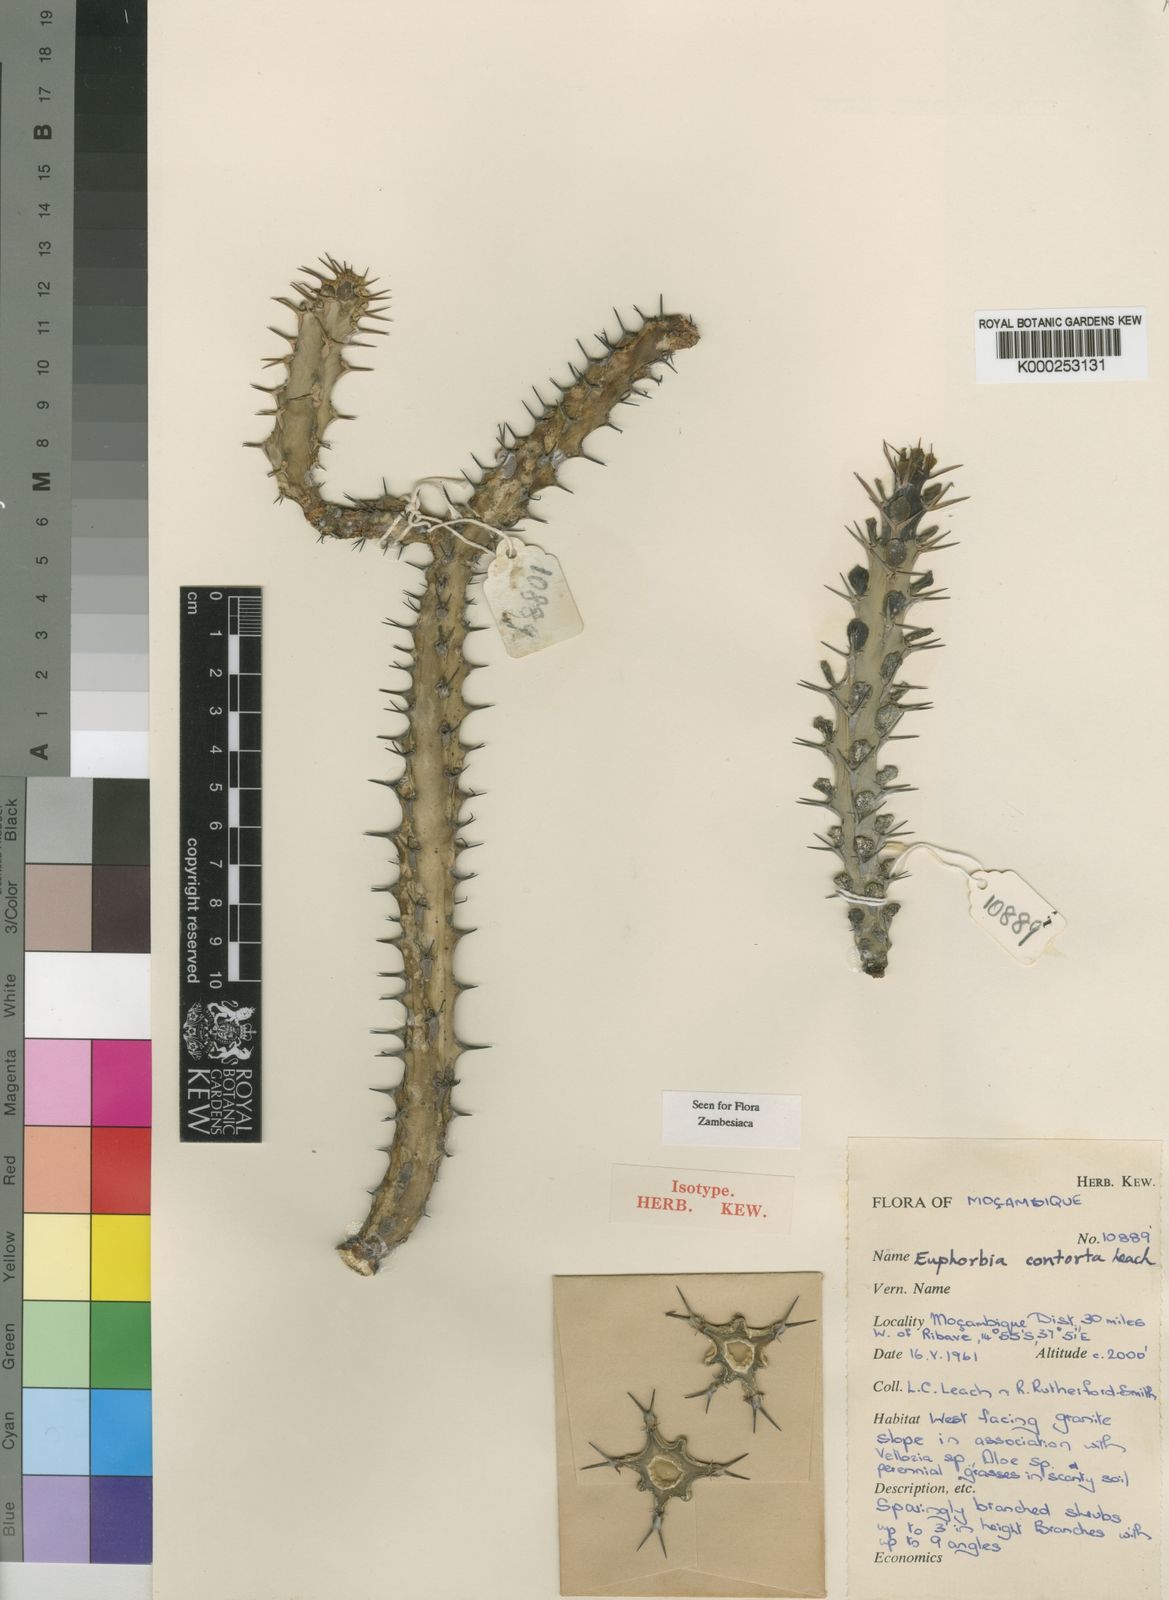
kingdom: Plantae
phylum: Tracheophyta
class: Magnoliopsida
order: Malpighiales
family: Euphorbiaceae
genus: Euphorbia
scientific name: Euphorbia contorta
